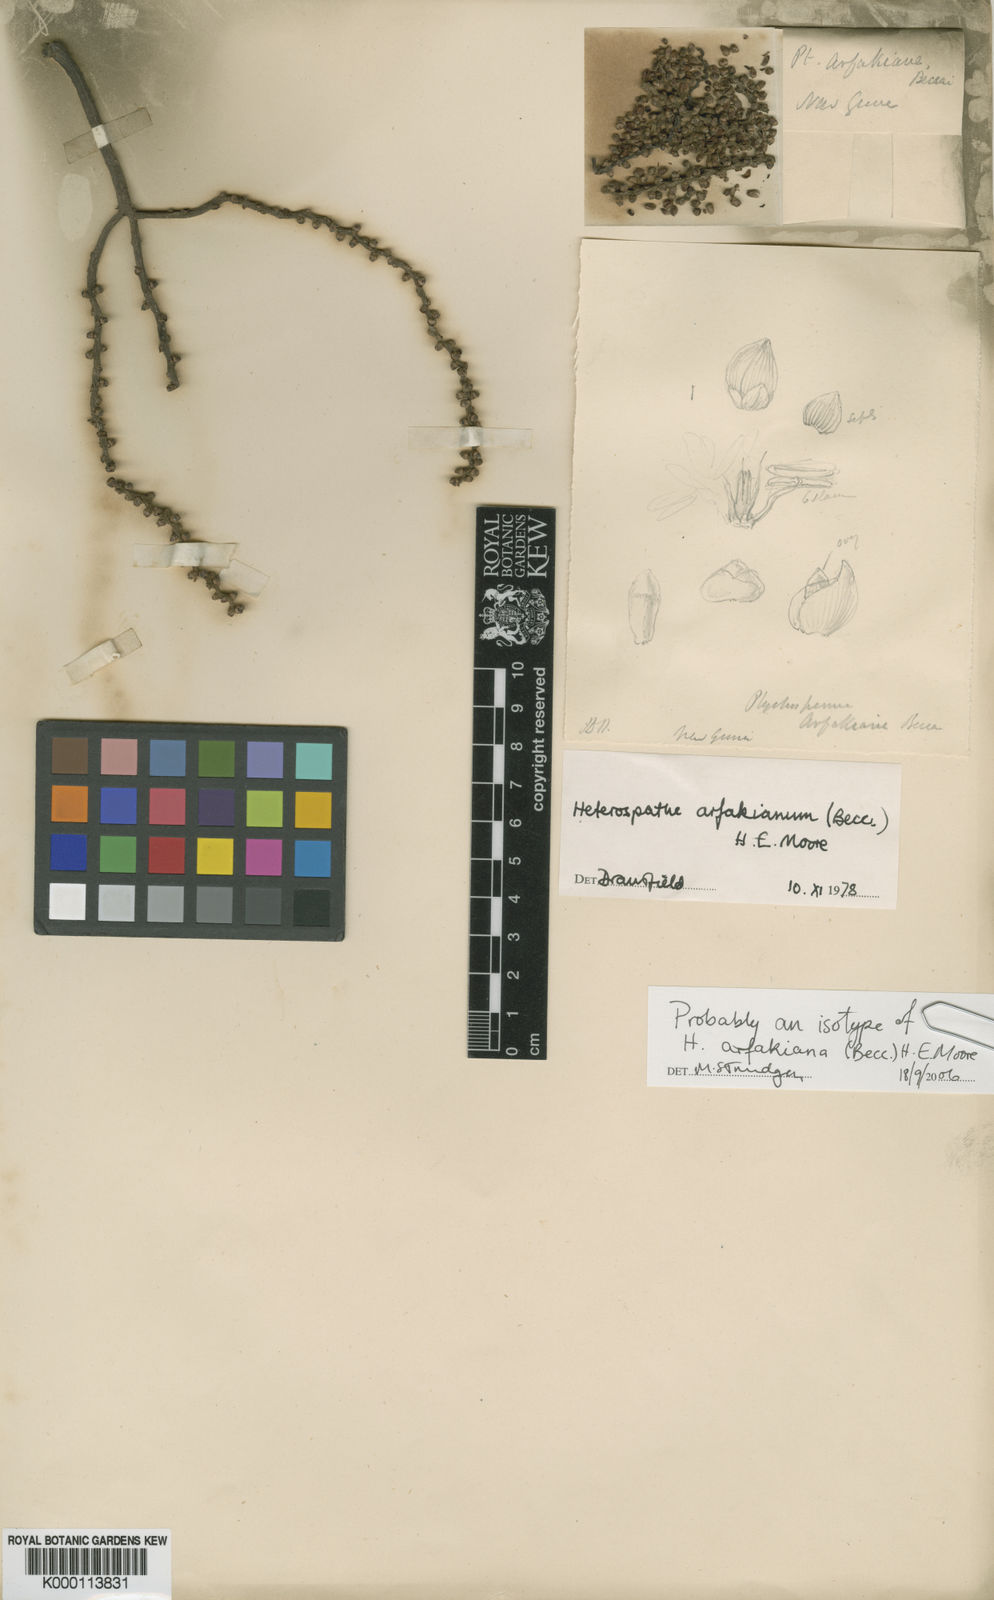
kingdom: Plantae
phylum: Tracheophyta
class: Liliopsida
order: Arecales
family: Arecaceae
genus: Heterospathe
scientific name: Heterospathe arfakiana
